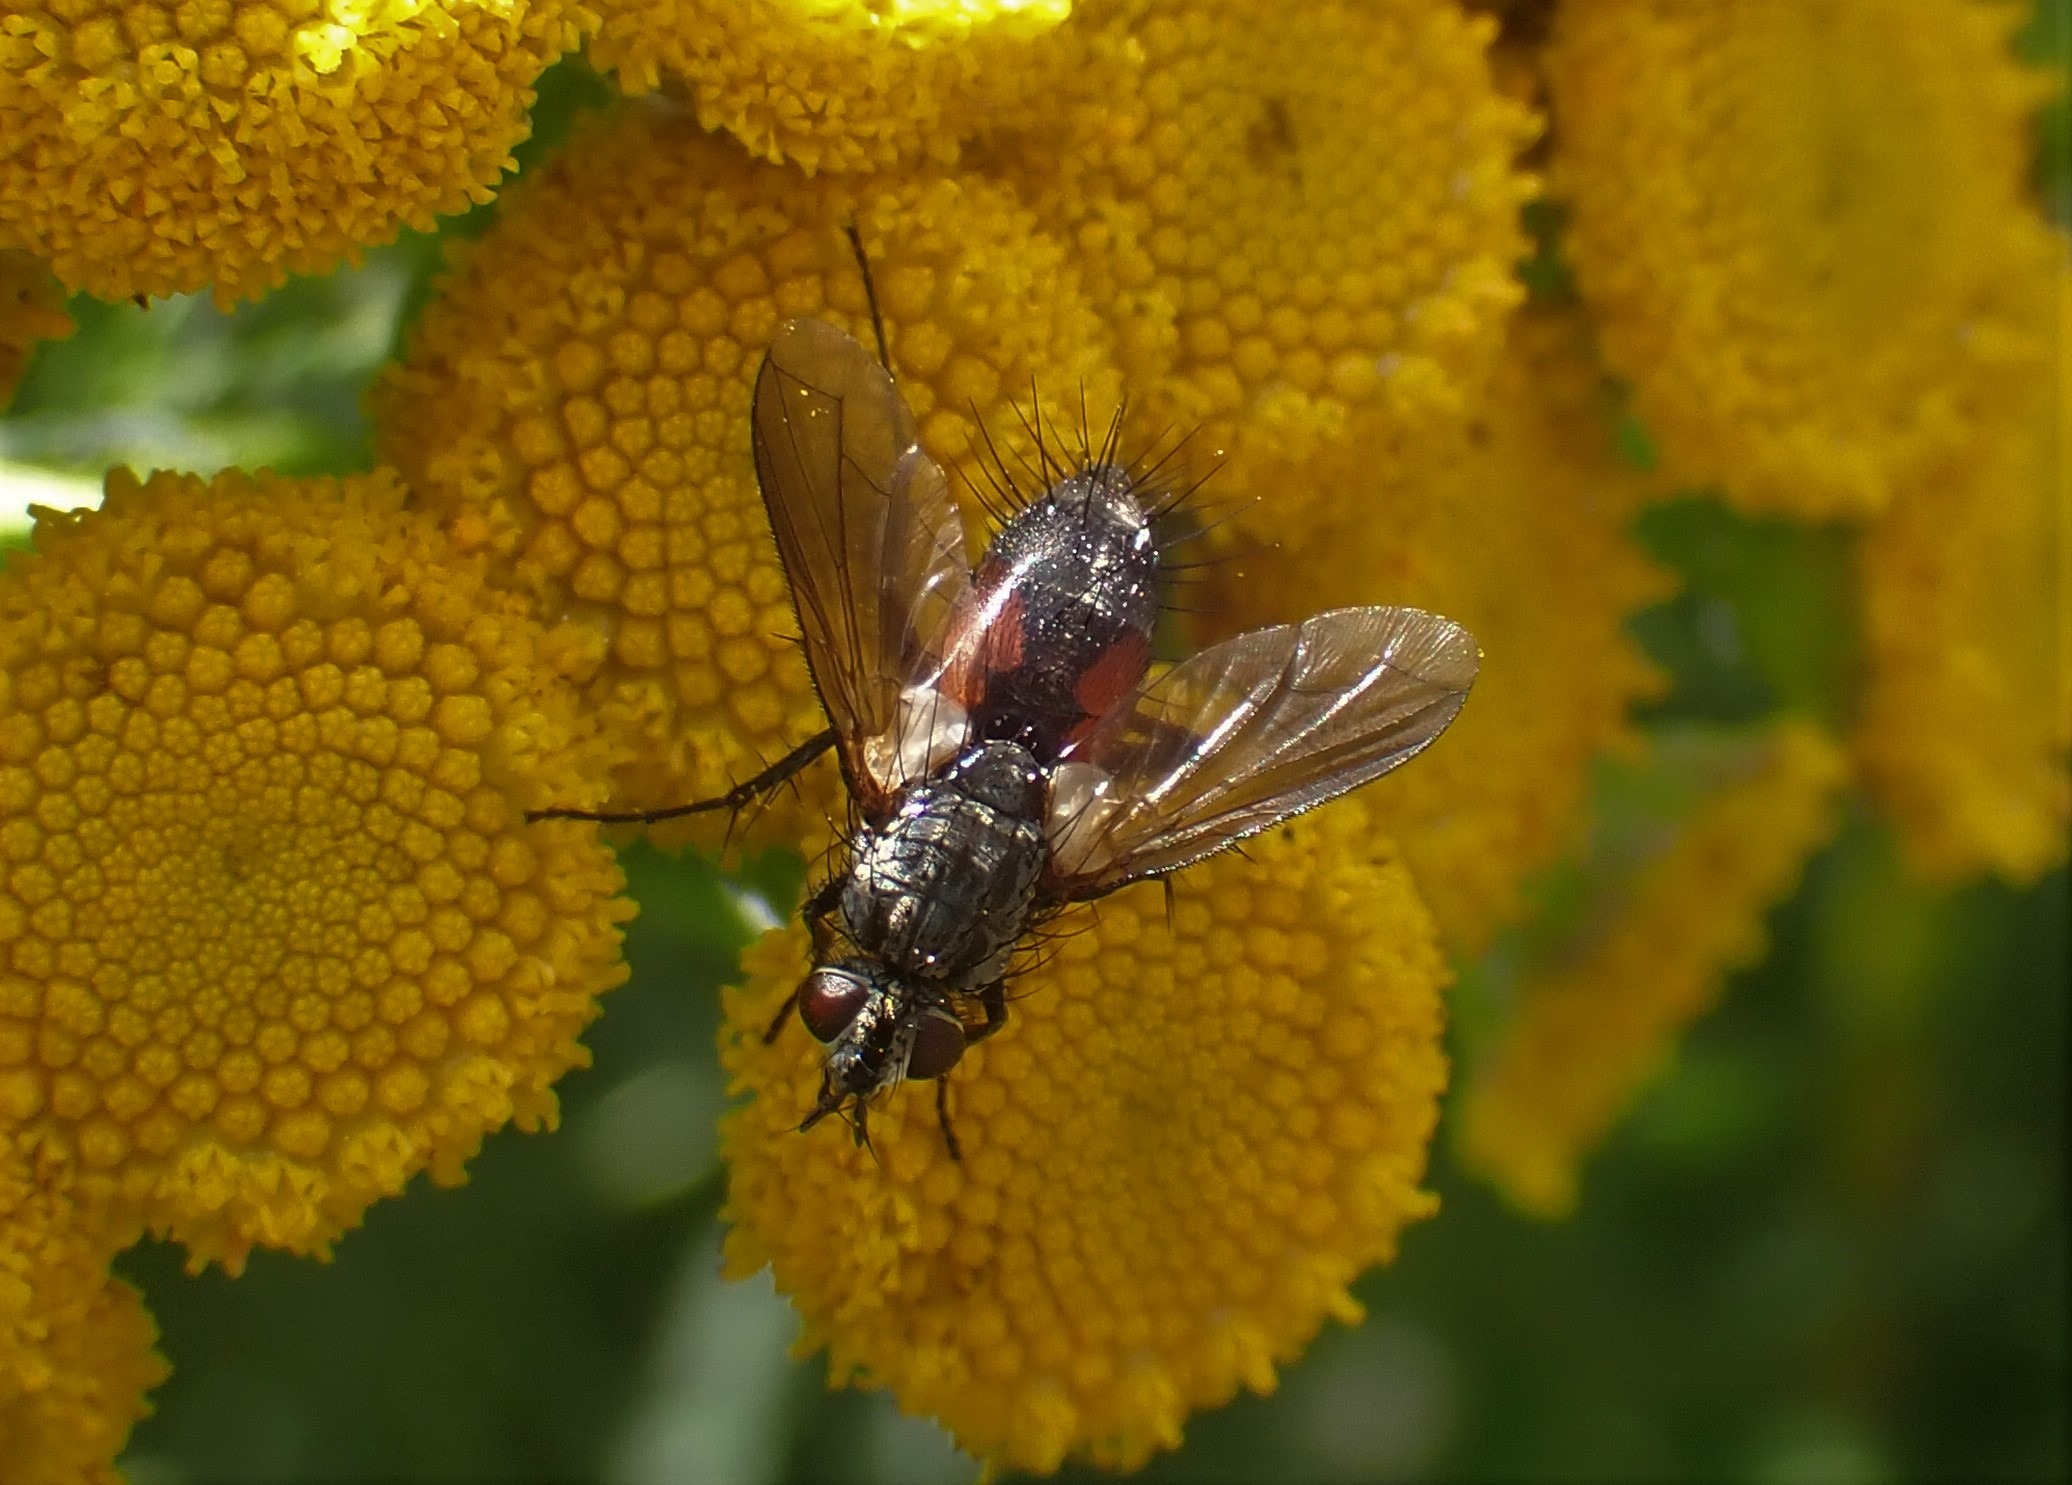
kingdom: Animalia
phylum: Arthropoda
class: Insecta
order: Diptera
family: Tachinidae
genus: Eriothrix
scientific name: Eriothrix rufomaculatus
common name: Rød snylteflue
